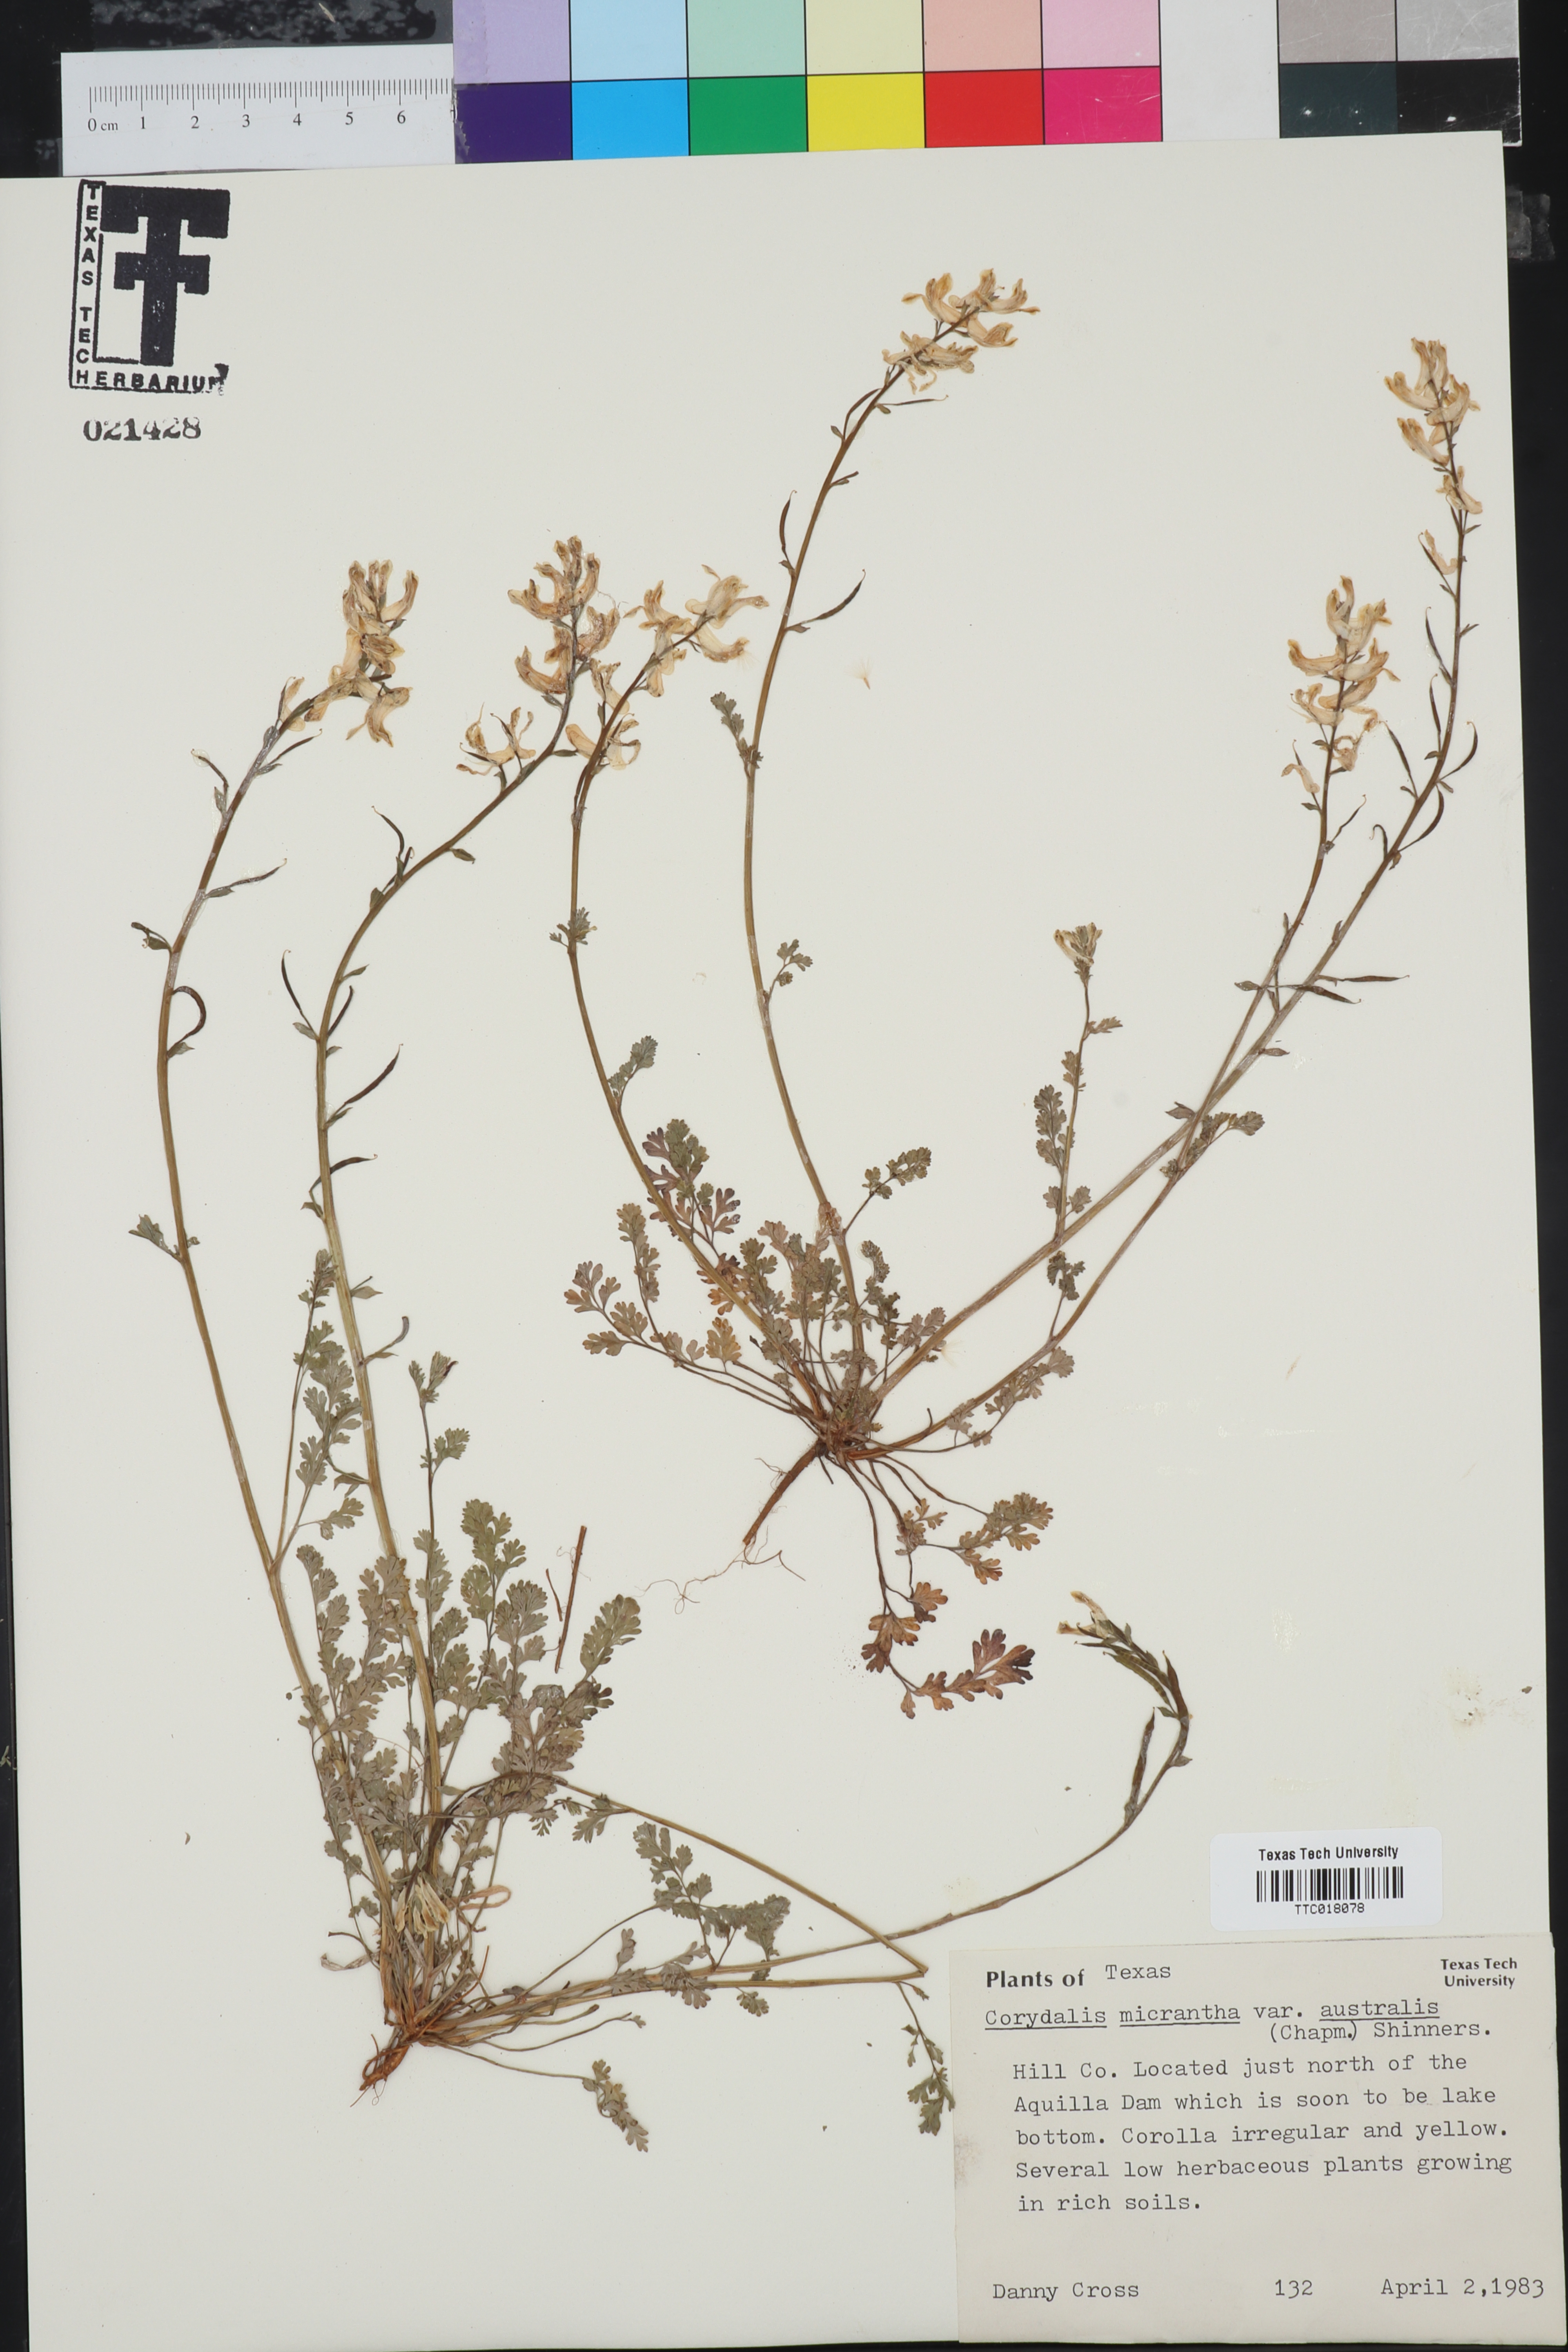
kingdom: Plantae
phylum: Tracheophyta
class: Magnoliopsida
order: Ranunculales
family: Papaveraceae
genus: Corydalis
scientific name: Corydalis micrantha
